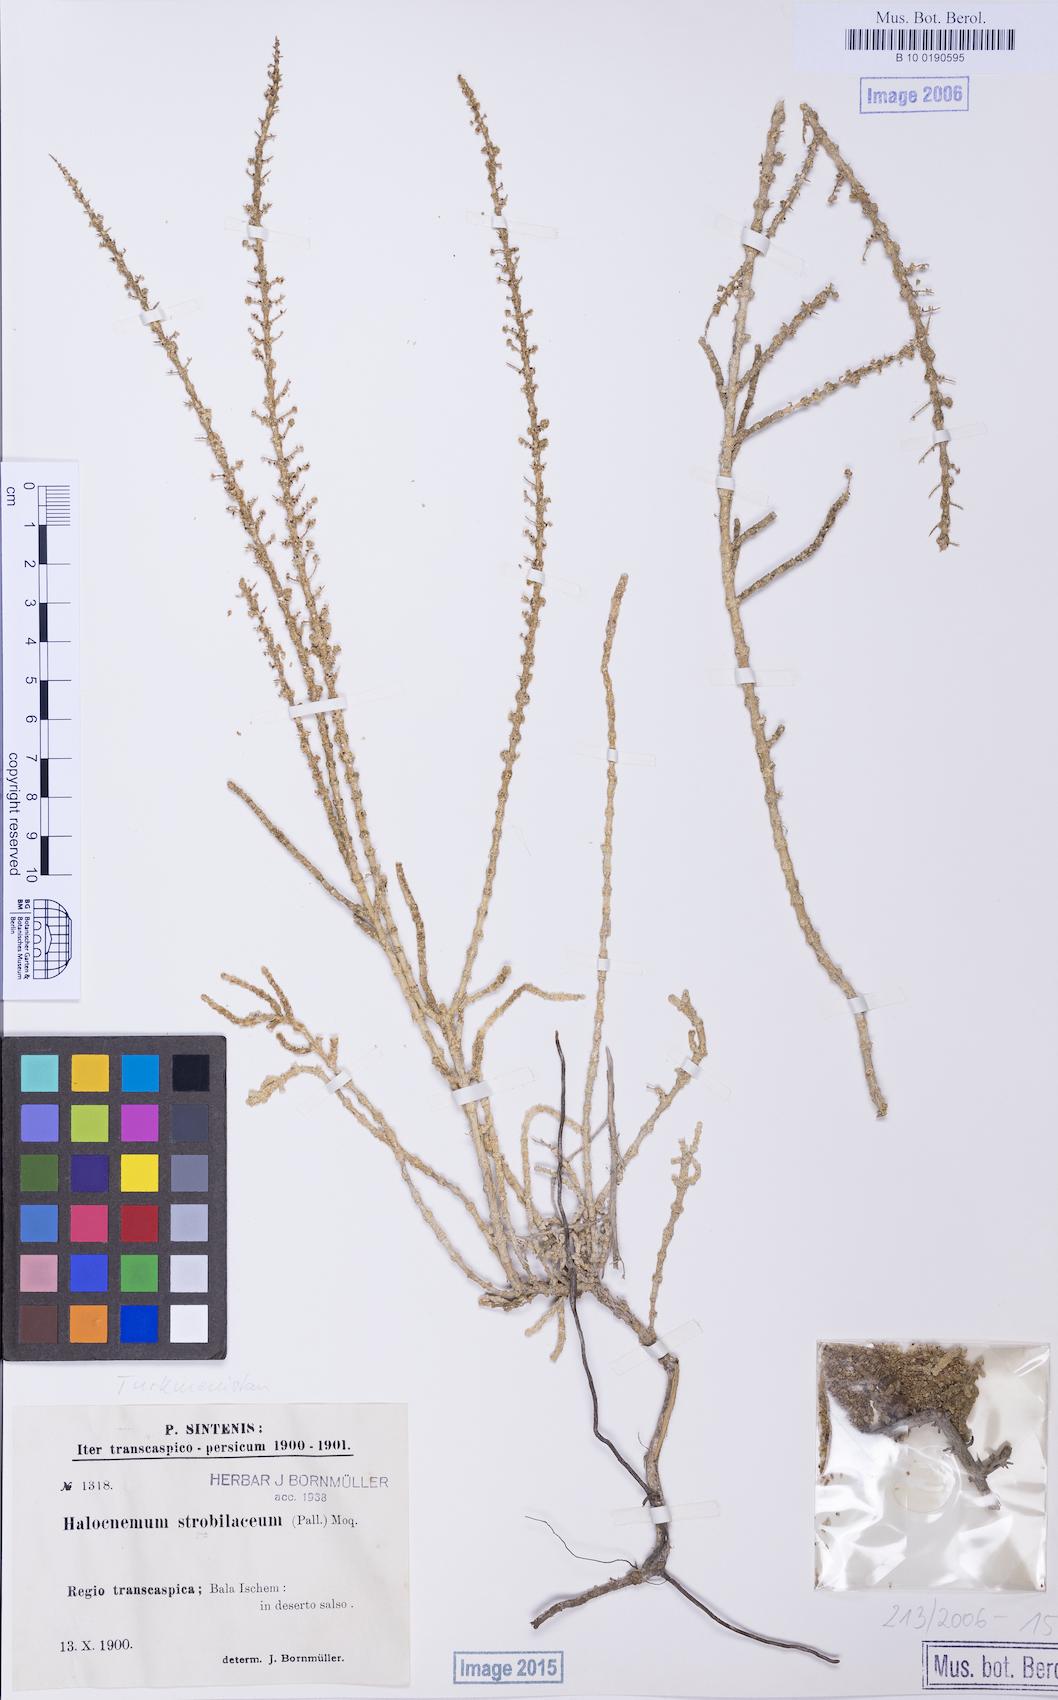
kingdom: Plantae
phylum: Tracheophyta
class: Magnoliopsida
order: Caryophyllales
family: Amaranthaceae
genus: Halocnemum
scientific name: Halocnemum strobilaceum
